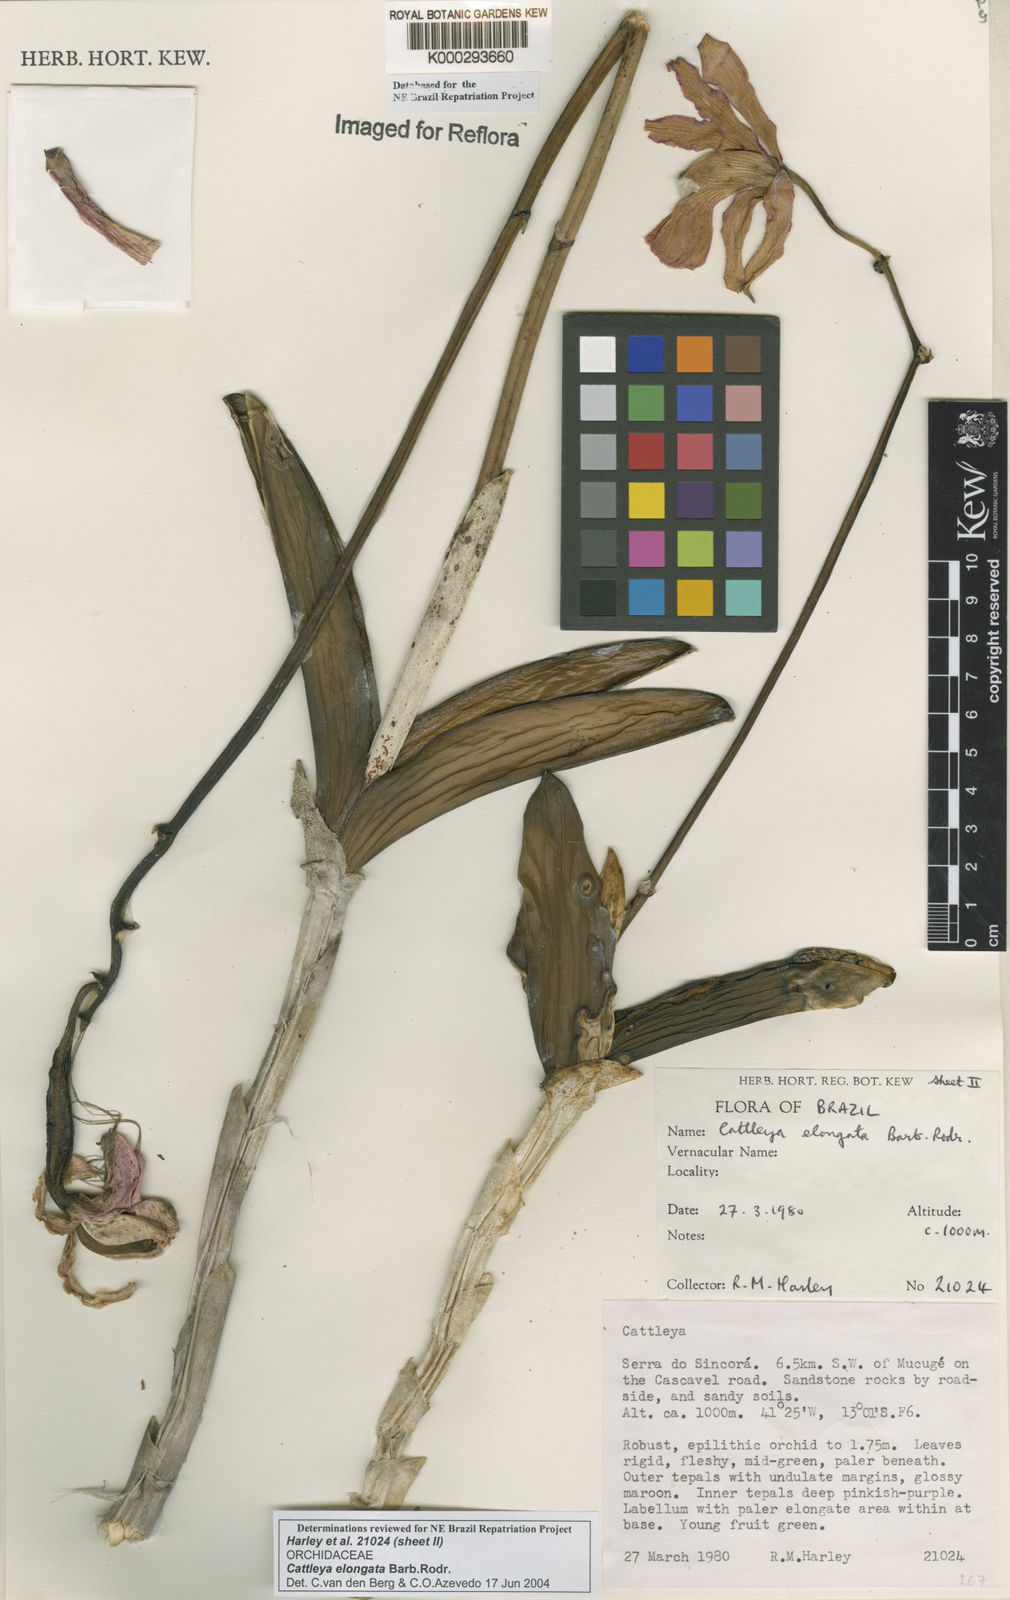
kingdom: Plantae
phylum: Tracheophyta
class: Liliopsida
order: Asparagales
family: Orchidaceae
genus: Cattleya
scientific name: Cattleya elongata
